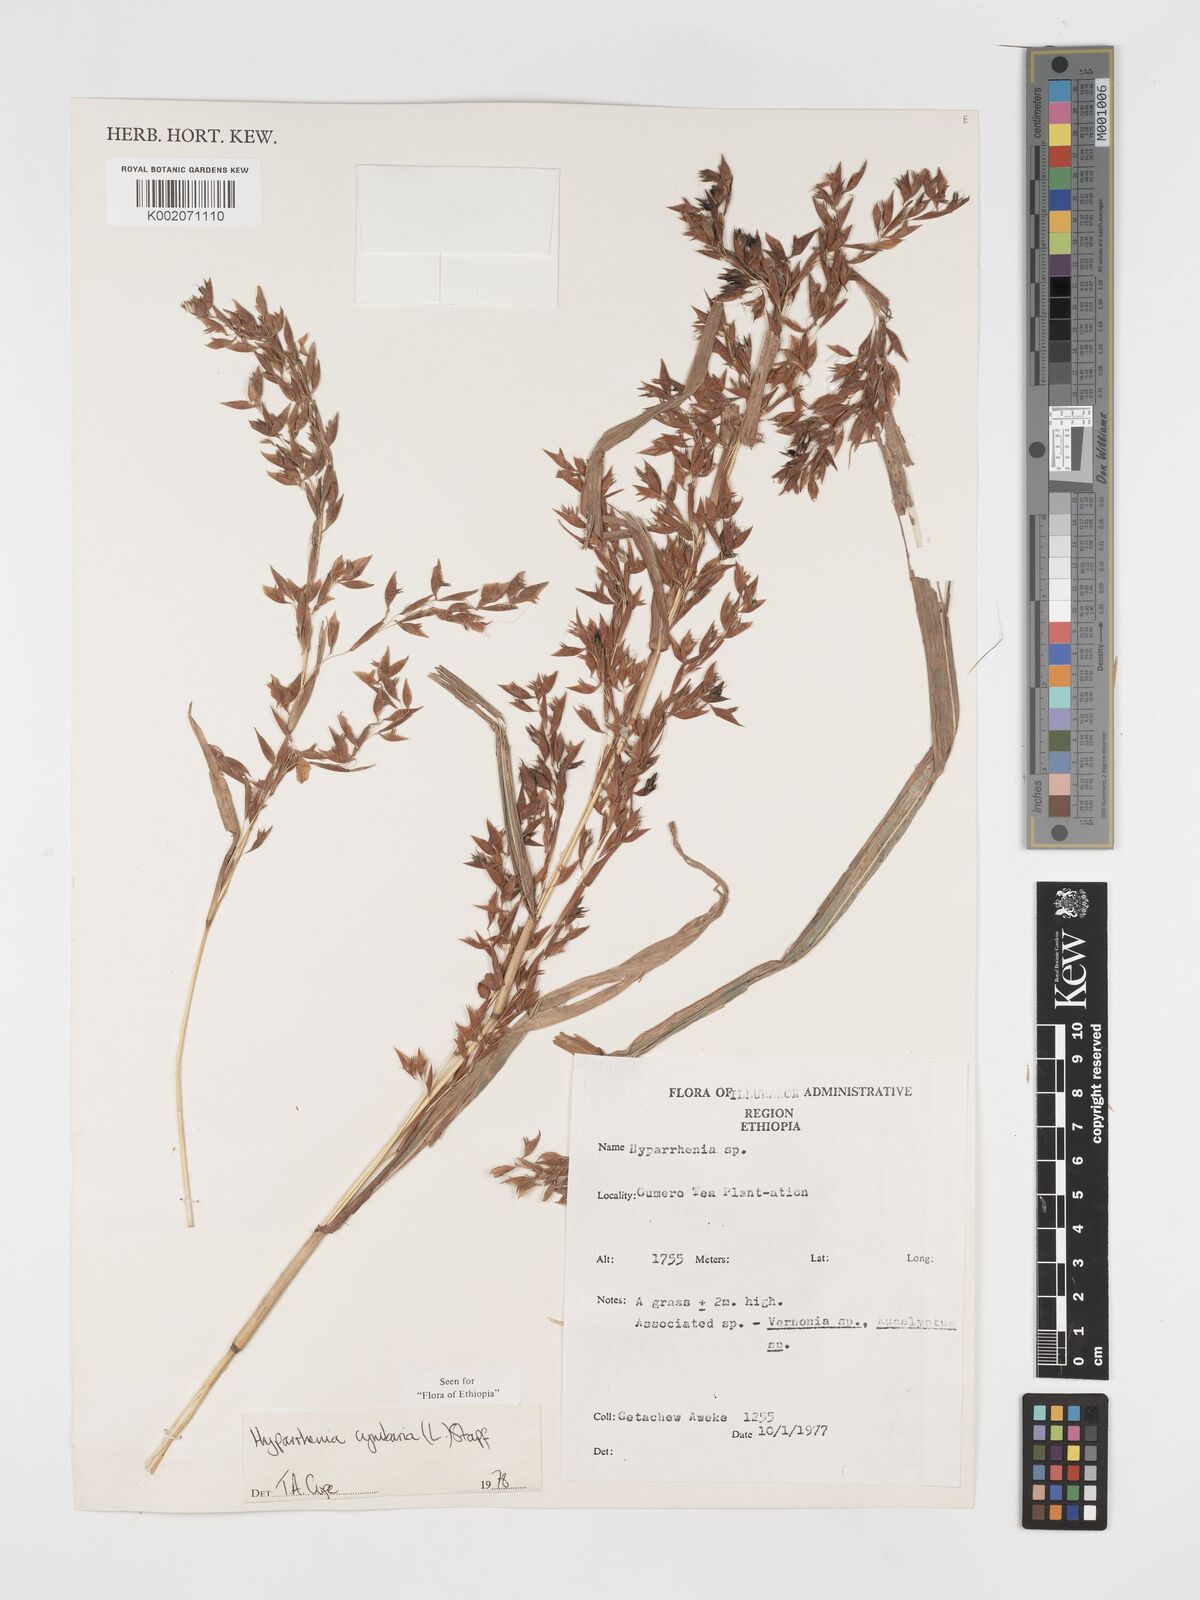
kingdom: Plantae
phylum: Tracheophyta
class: Liliopsida
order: Poales
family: Poaceae
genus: Hyparrhenia
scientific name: Hyparrhenia cymbaria
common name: Boat thatching grass
